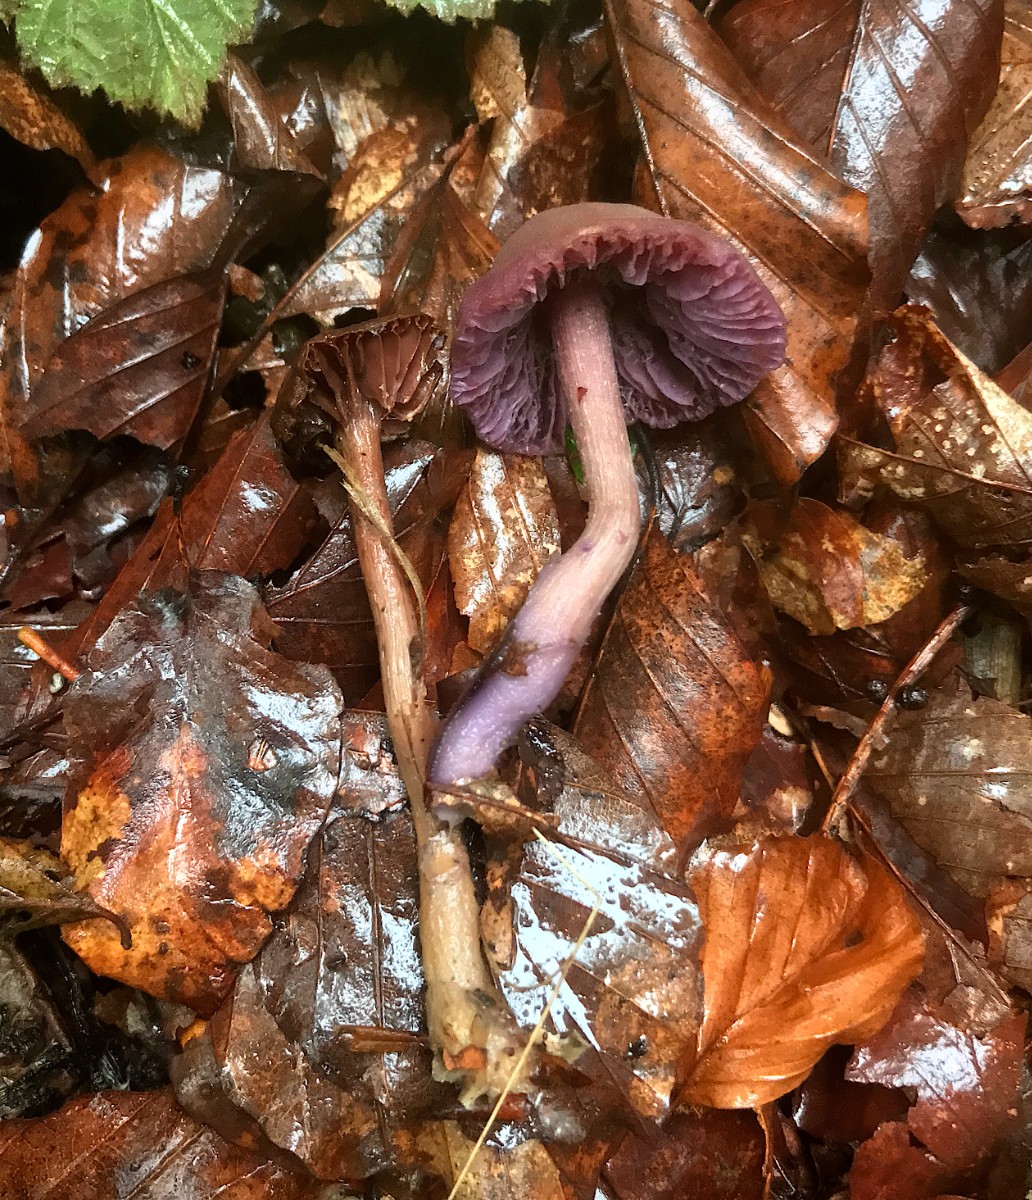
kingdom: Fungi
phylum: Basidiomycota
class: Agaricomycetes
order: Agaricales
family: Hydnangiaceae
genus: Laccaria
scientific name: Laccaria amethystina
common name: violet ametysthat
